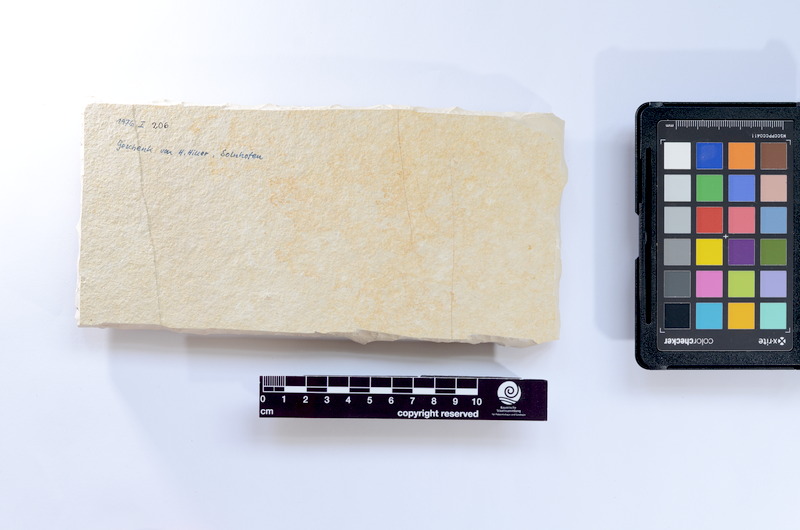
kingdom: Animalia
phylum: Chordata
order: Salmoniformes
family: Orthogonikleithridae
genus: Leptolepides
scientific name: Leptolepides
